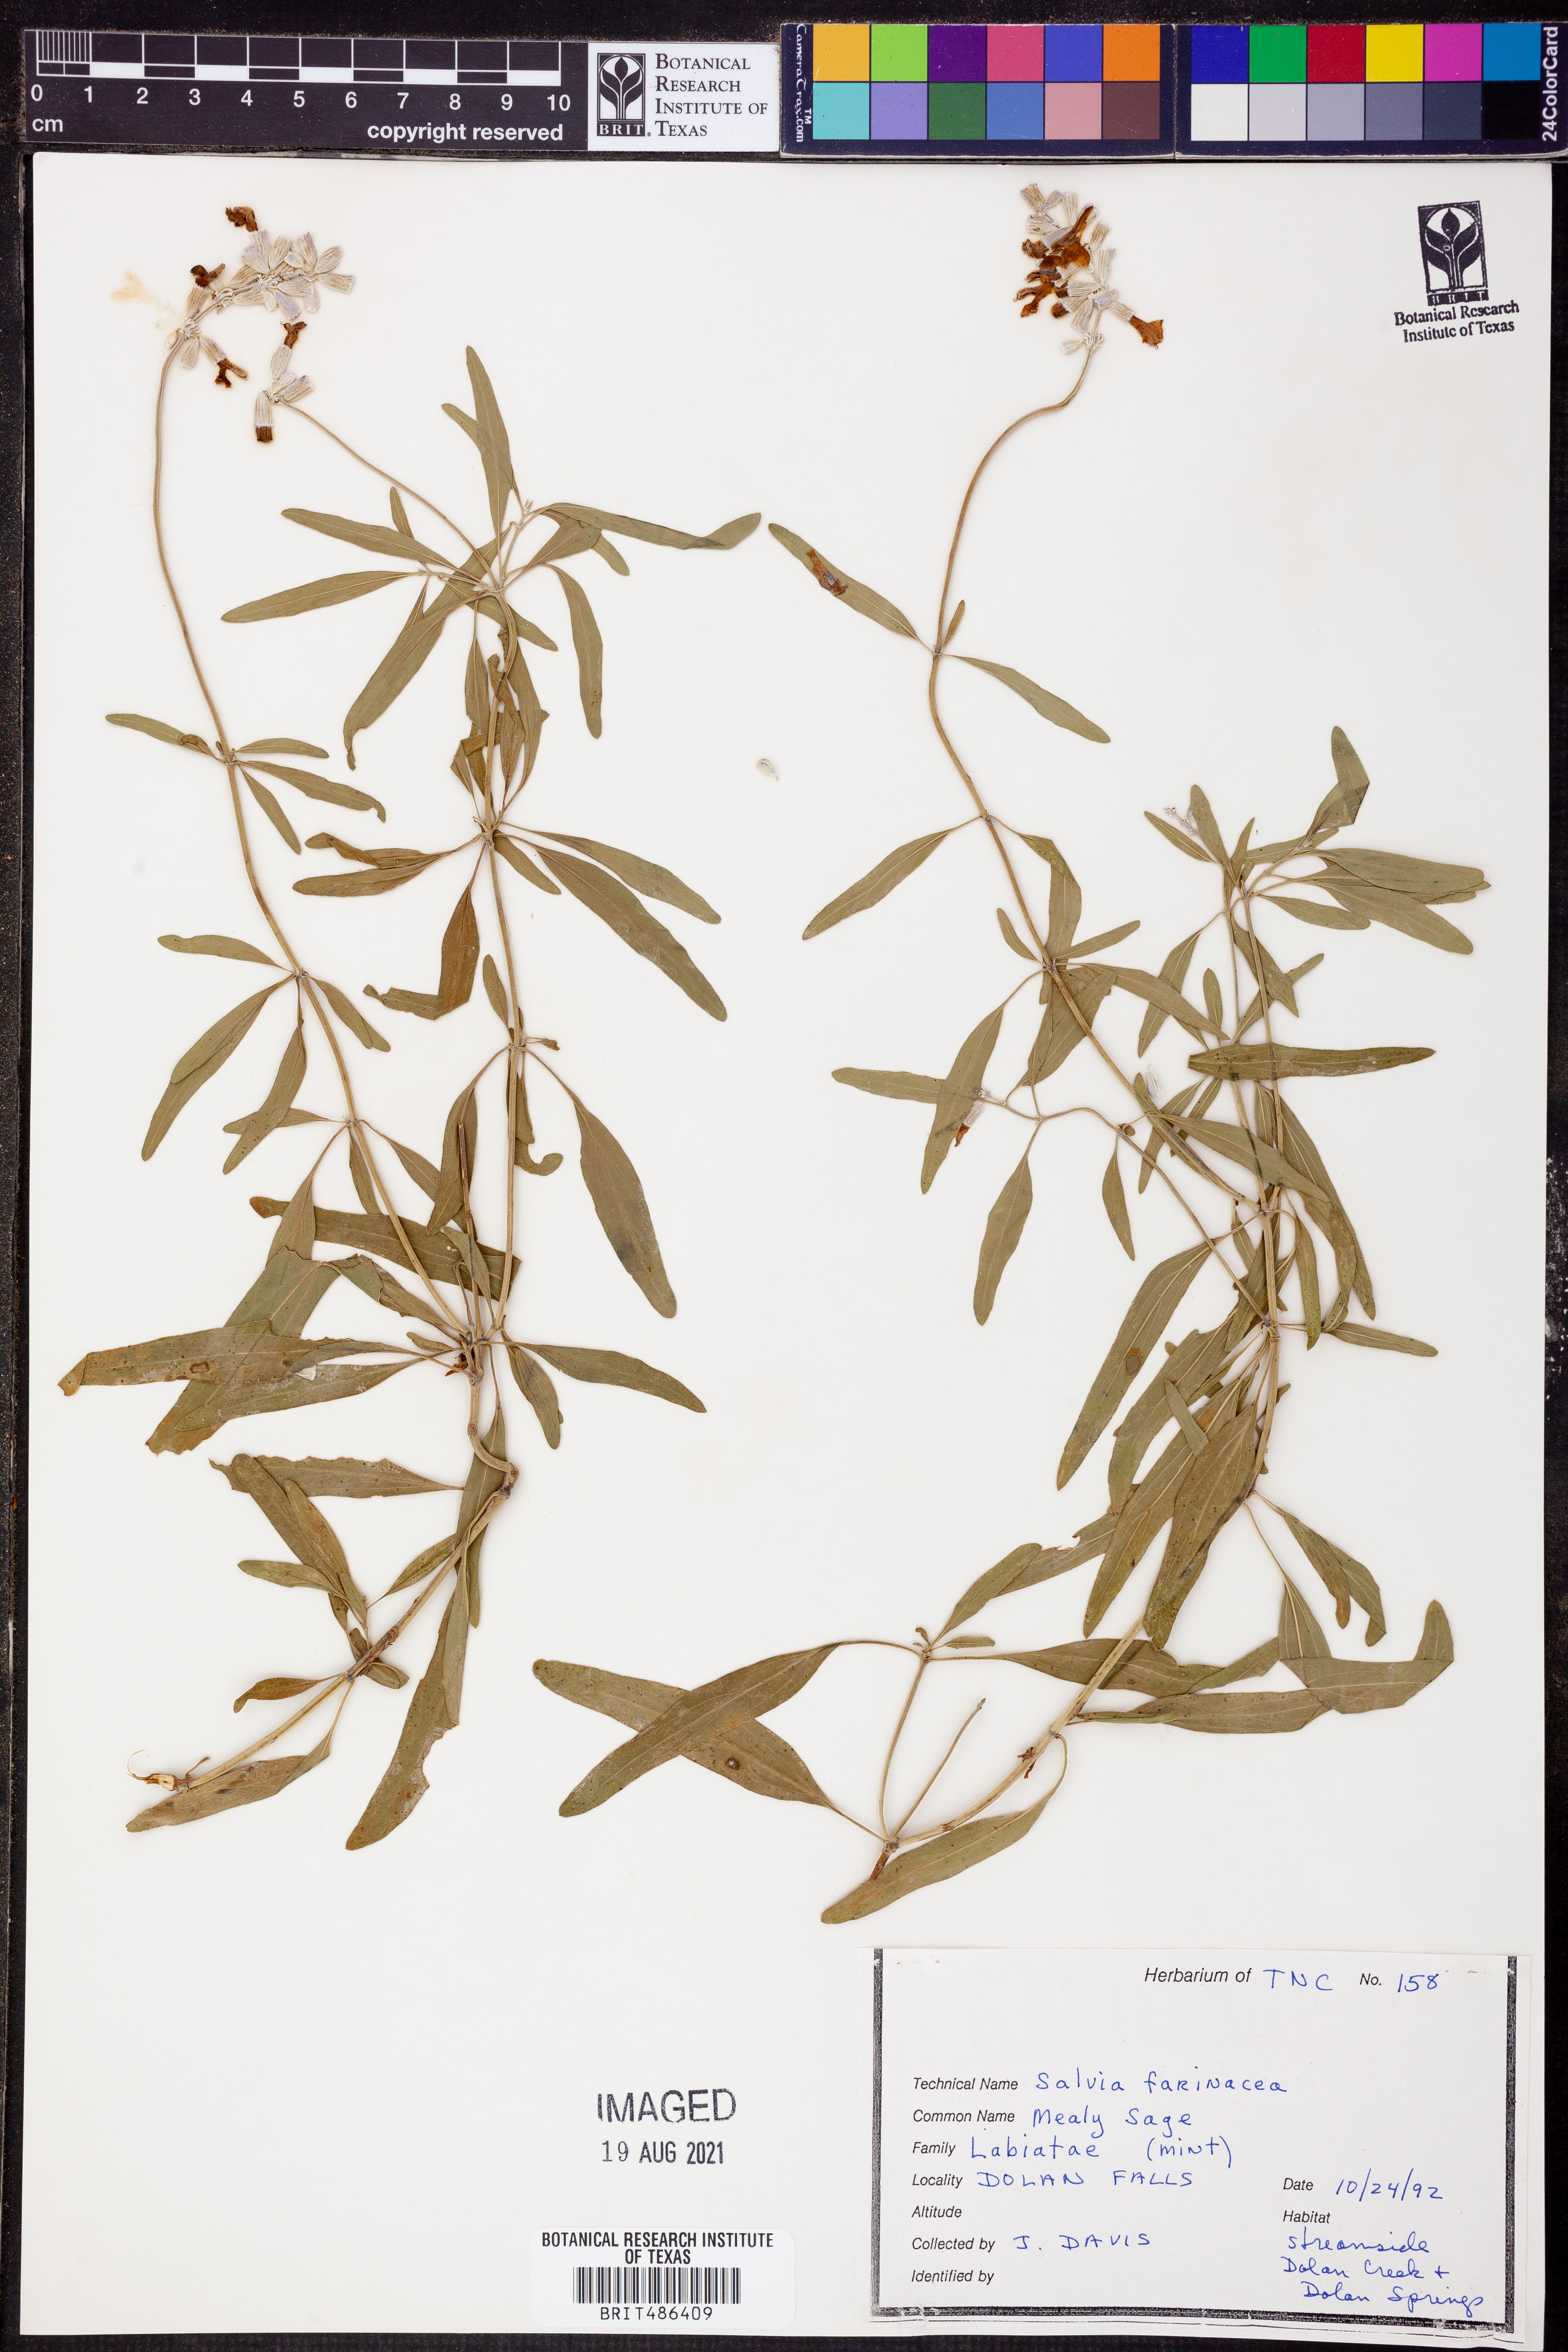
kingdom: Plantae
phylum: Tracheophyta
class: Magnoliopsida
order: Lamiales
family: Lamiaceae
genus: Salvia
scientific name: Salvia farinacea
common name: Mealy sage
